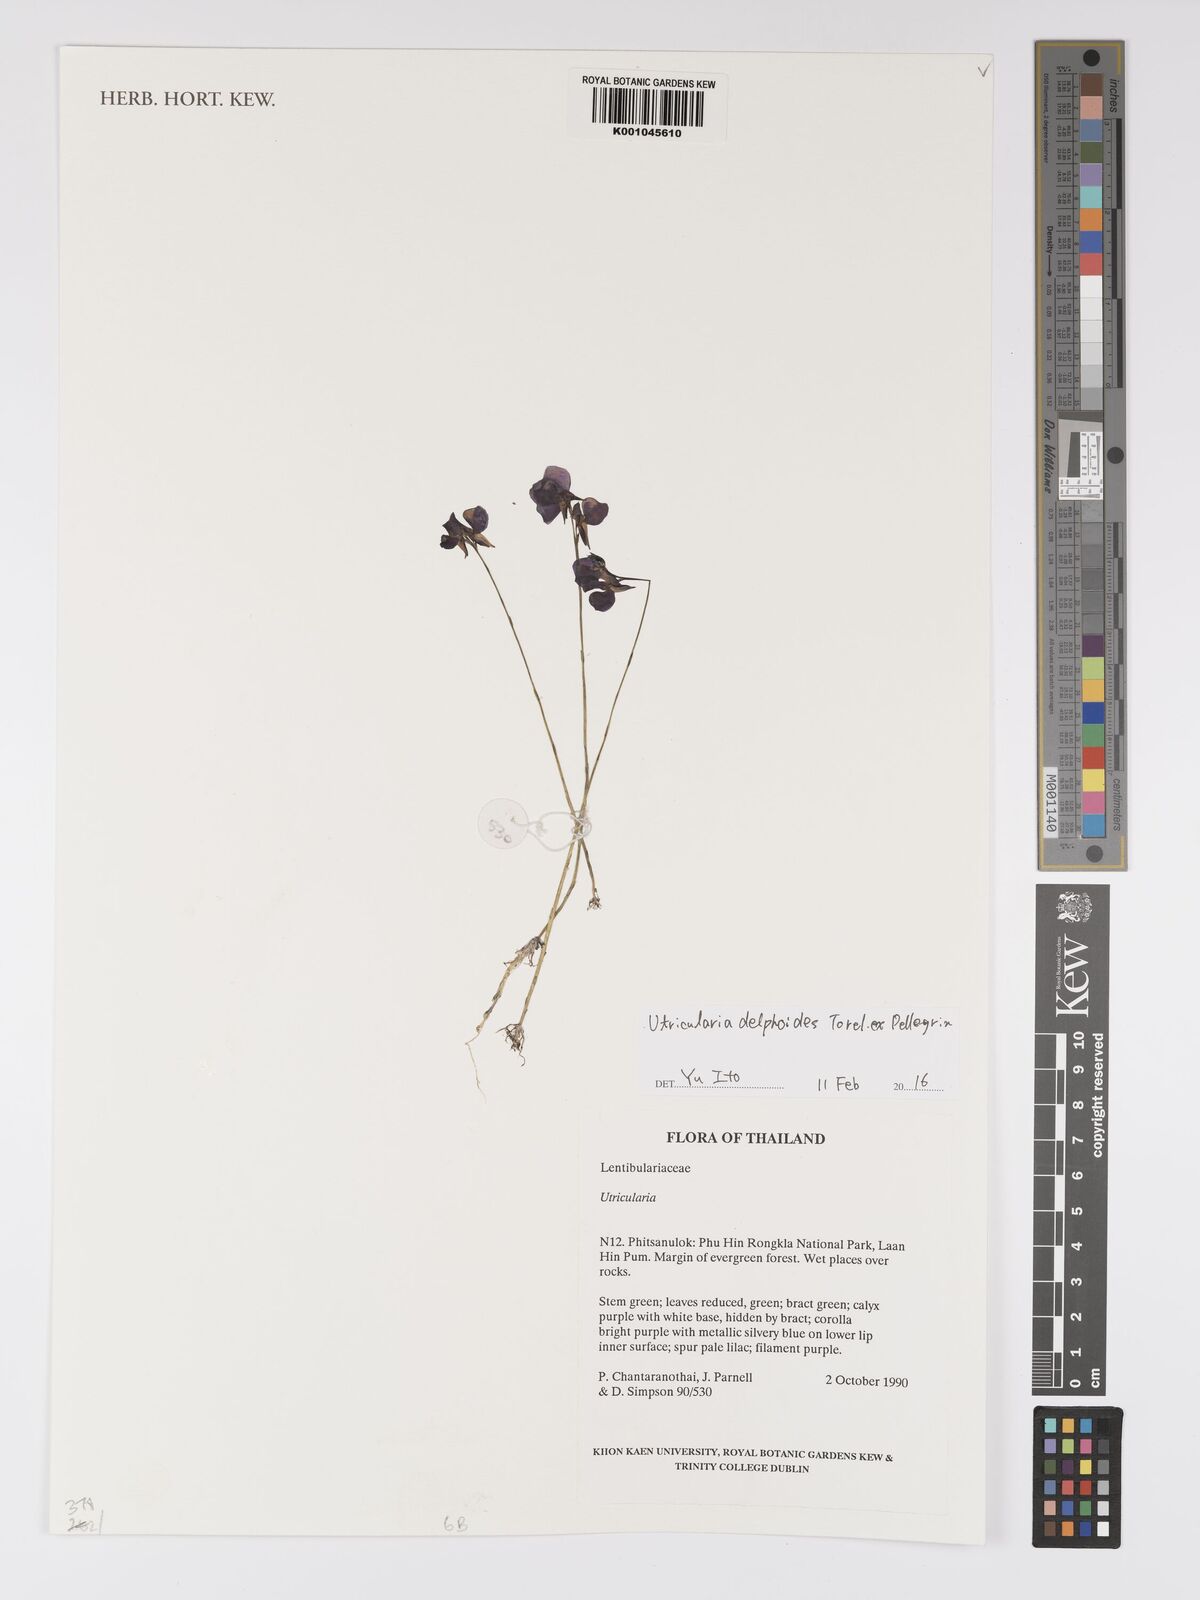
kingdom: Plantae
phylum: Tracheophyta
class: Magnoliopsida
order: Lamiales
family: Lentibulariaceae
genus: Utricularia
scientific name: Utricularia
